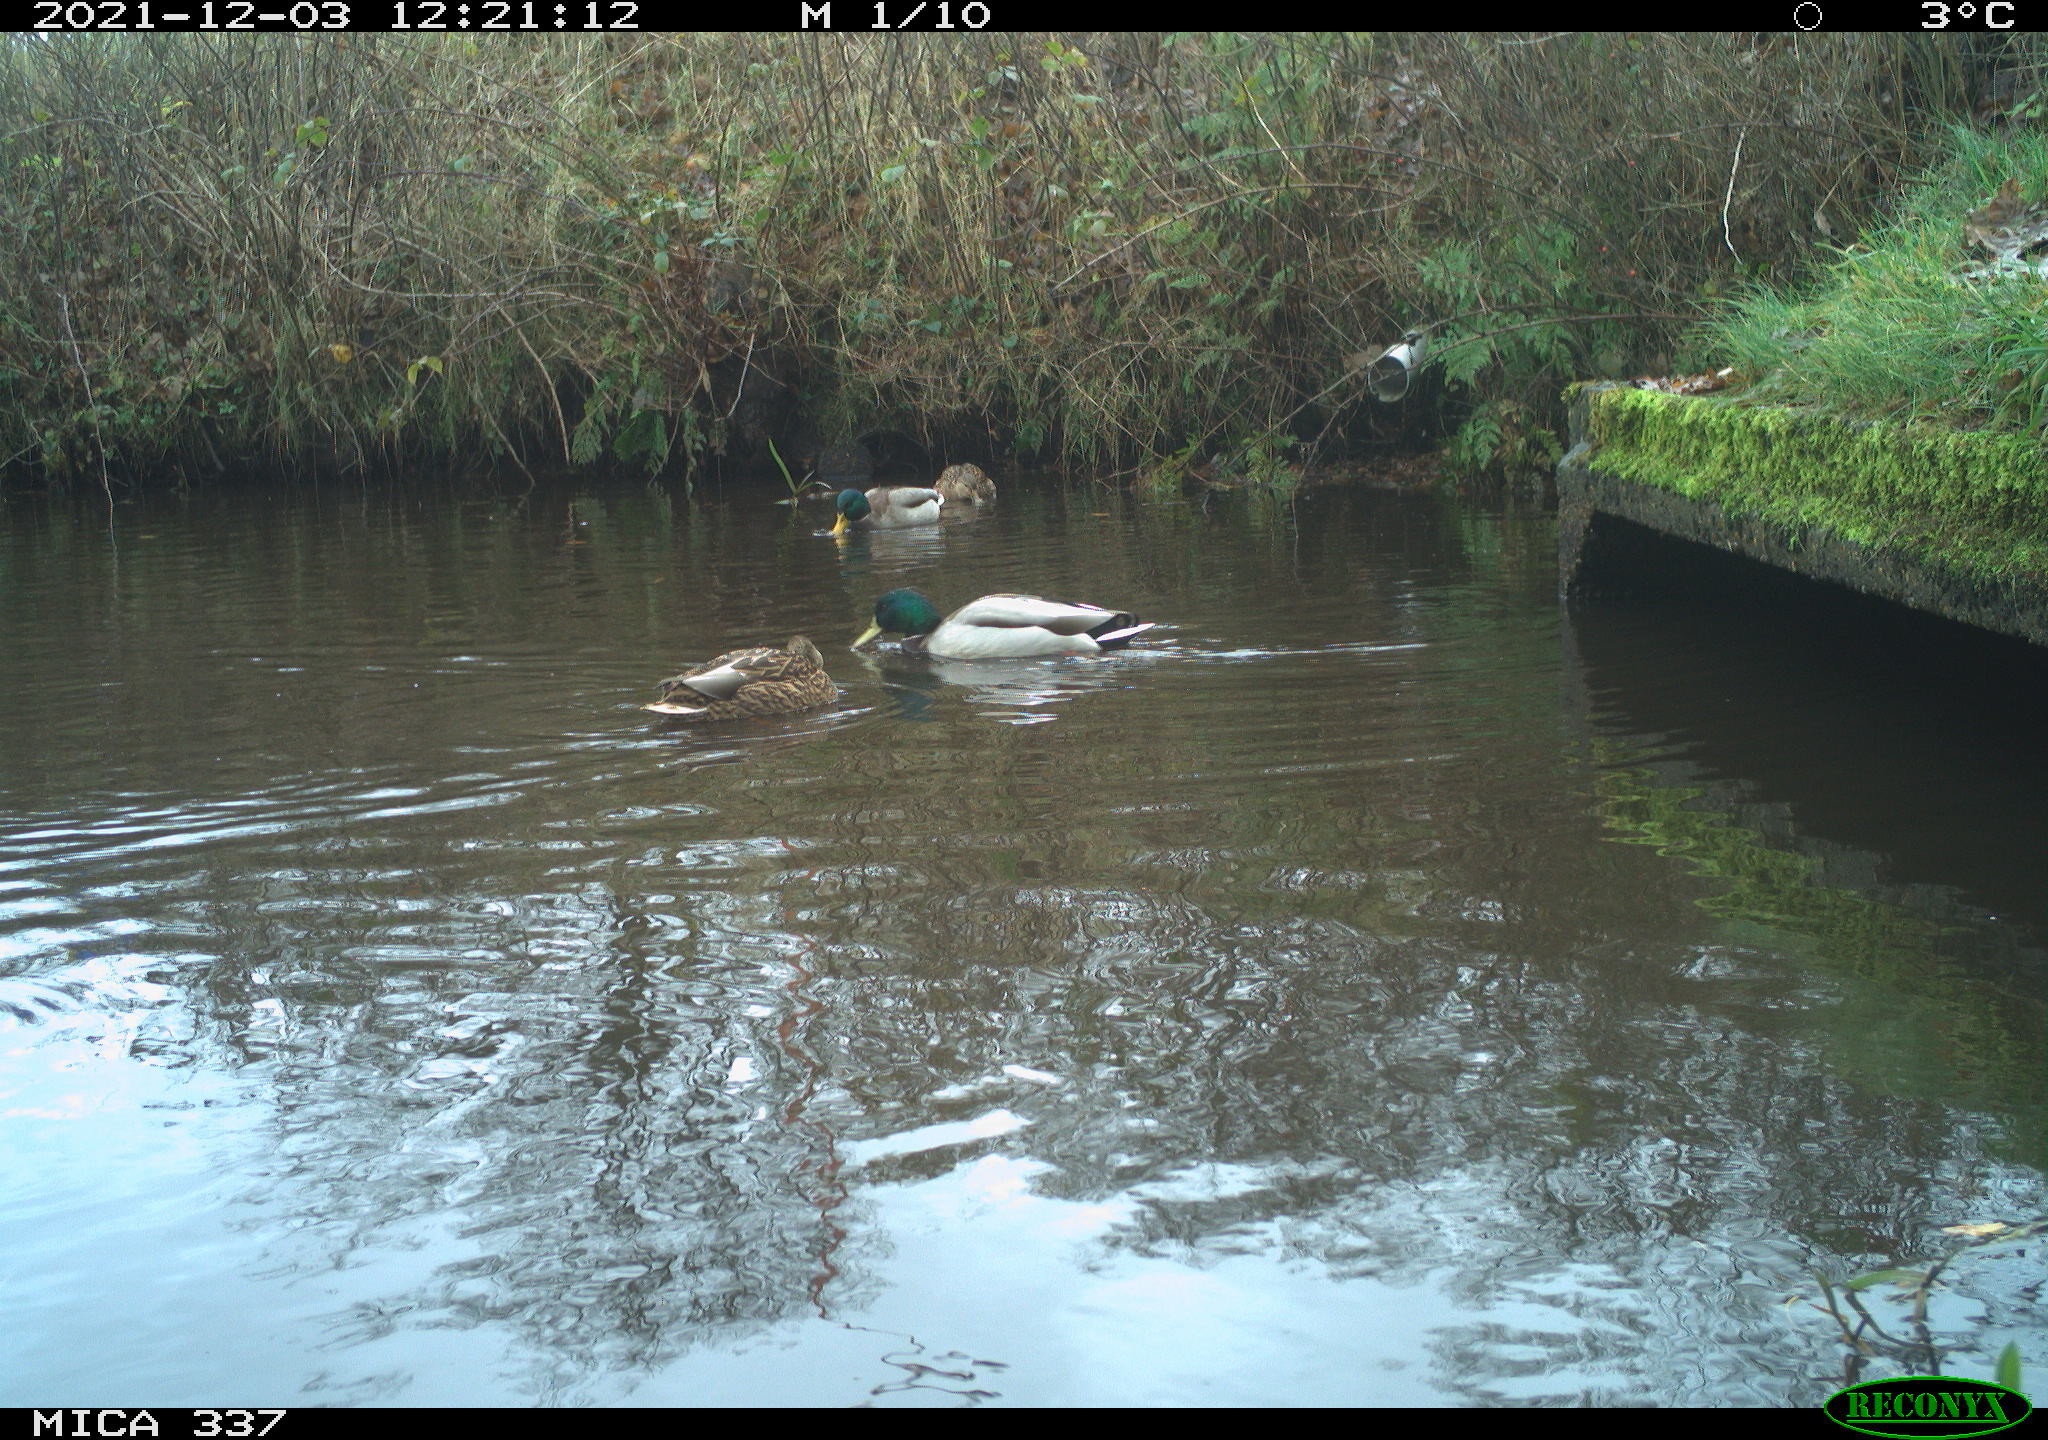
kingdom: Animalia
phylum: Chordata
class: Aves
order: Anseriformes
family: Anatidae
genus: Anas
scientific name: Anas platyrhynchos
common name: Mallard
